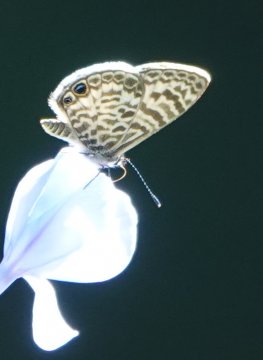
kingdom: Animalia
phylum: Arthropoda
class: Insecta
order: Lepidoptera
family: Lycaenidae
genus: Leptotes
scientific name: Leptotes cassius
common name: Cassius Blue
